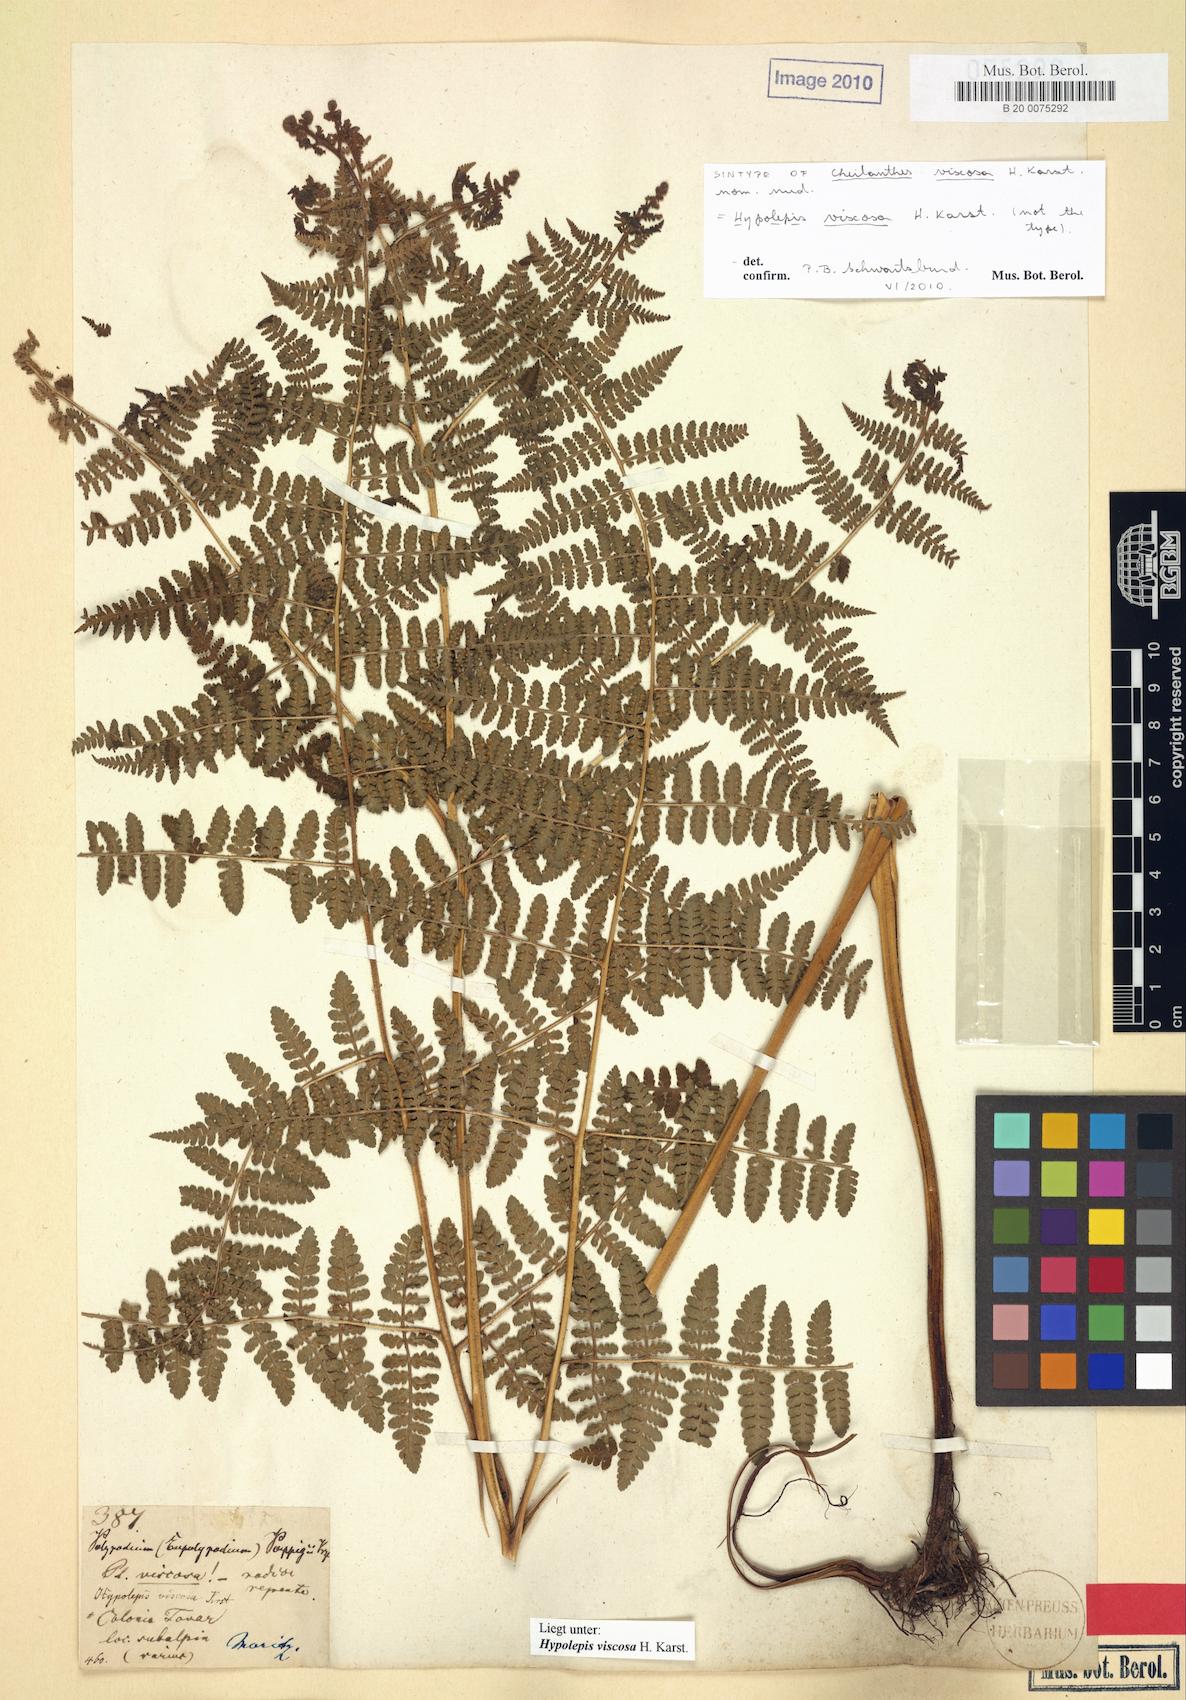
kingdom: Plantae
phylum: Tracheophyta
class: Polypodiopsida
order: Polypodiales
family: Dennstaedtiaceae
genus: Hypolepis
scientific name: Hypolepis viscosa
